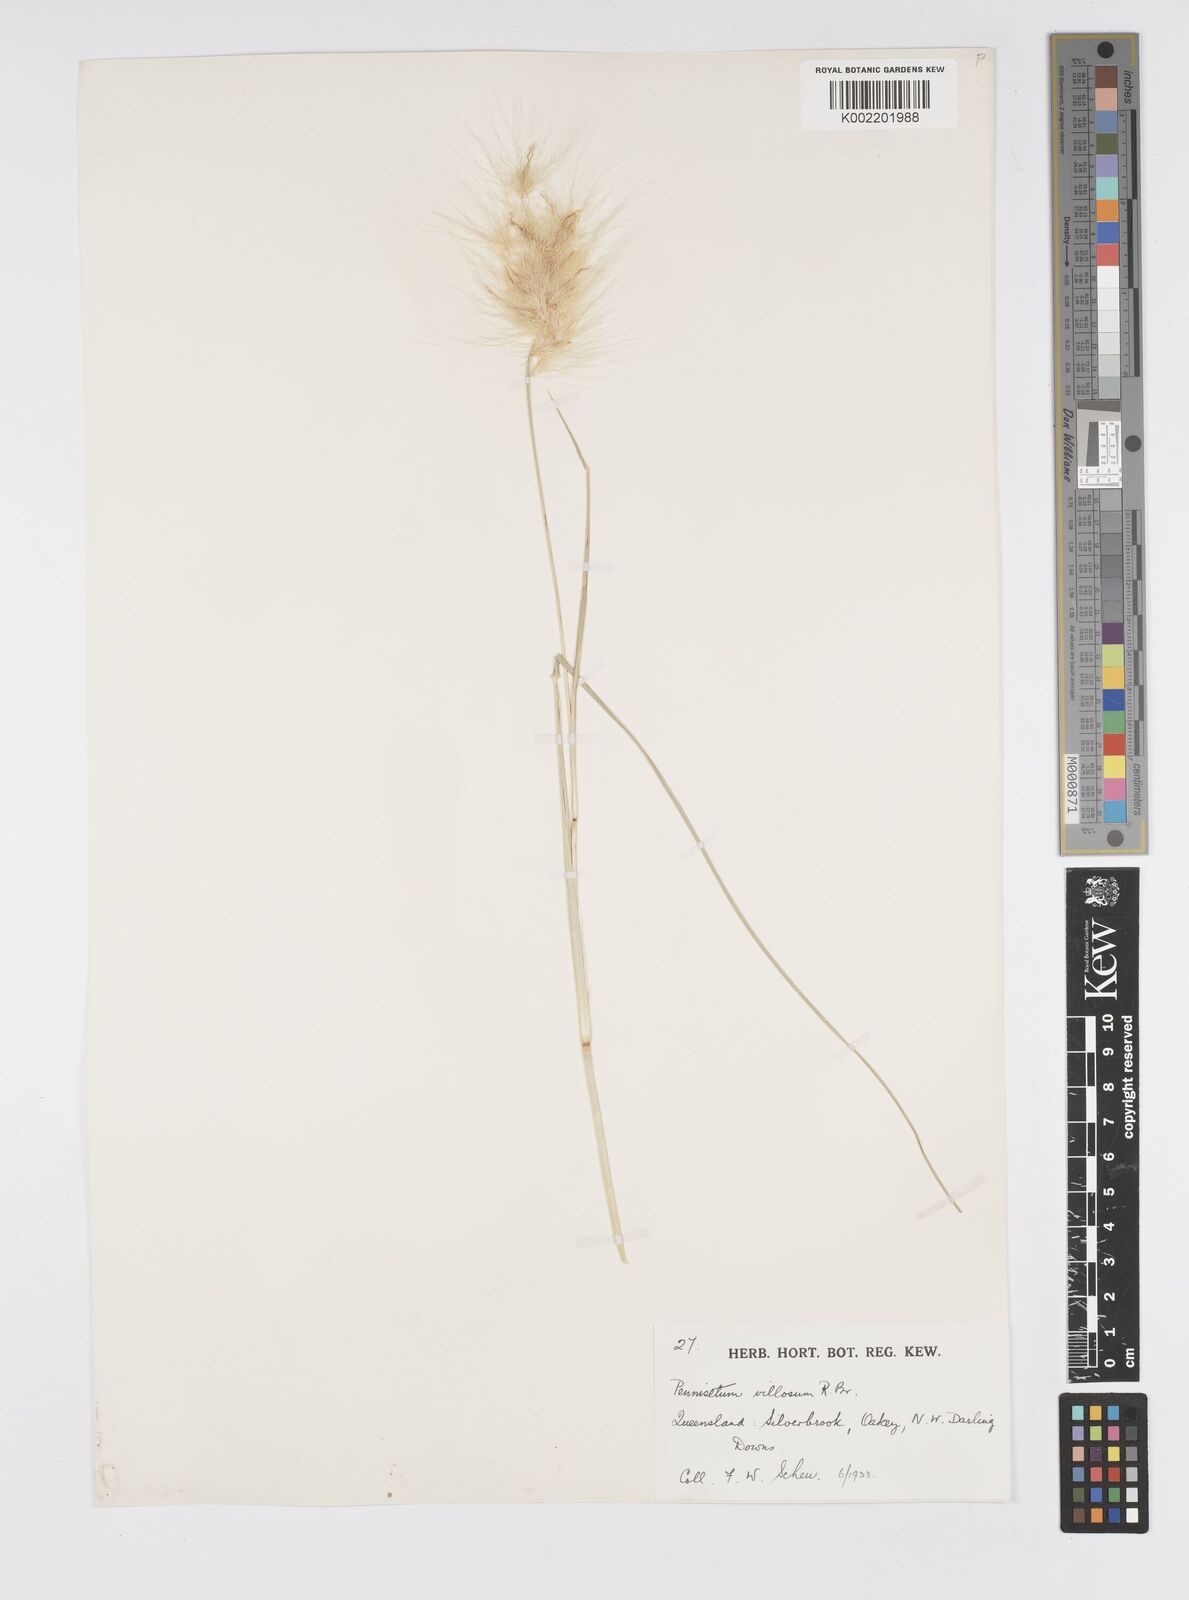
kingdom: Plantae
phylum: Tracheophyta
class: Liliopsida
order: Poales
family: Poaceae
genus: Cenchrus
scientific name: Cenchrus longisetus
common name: Feathertop
